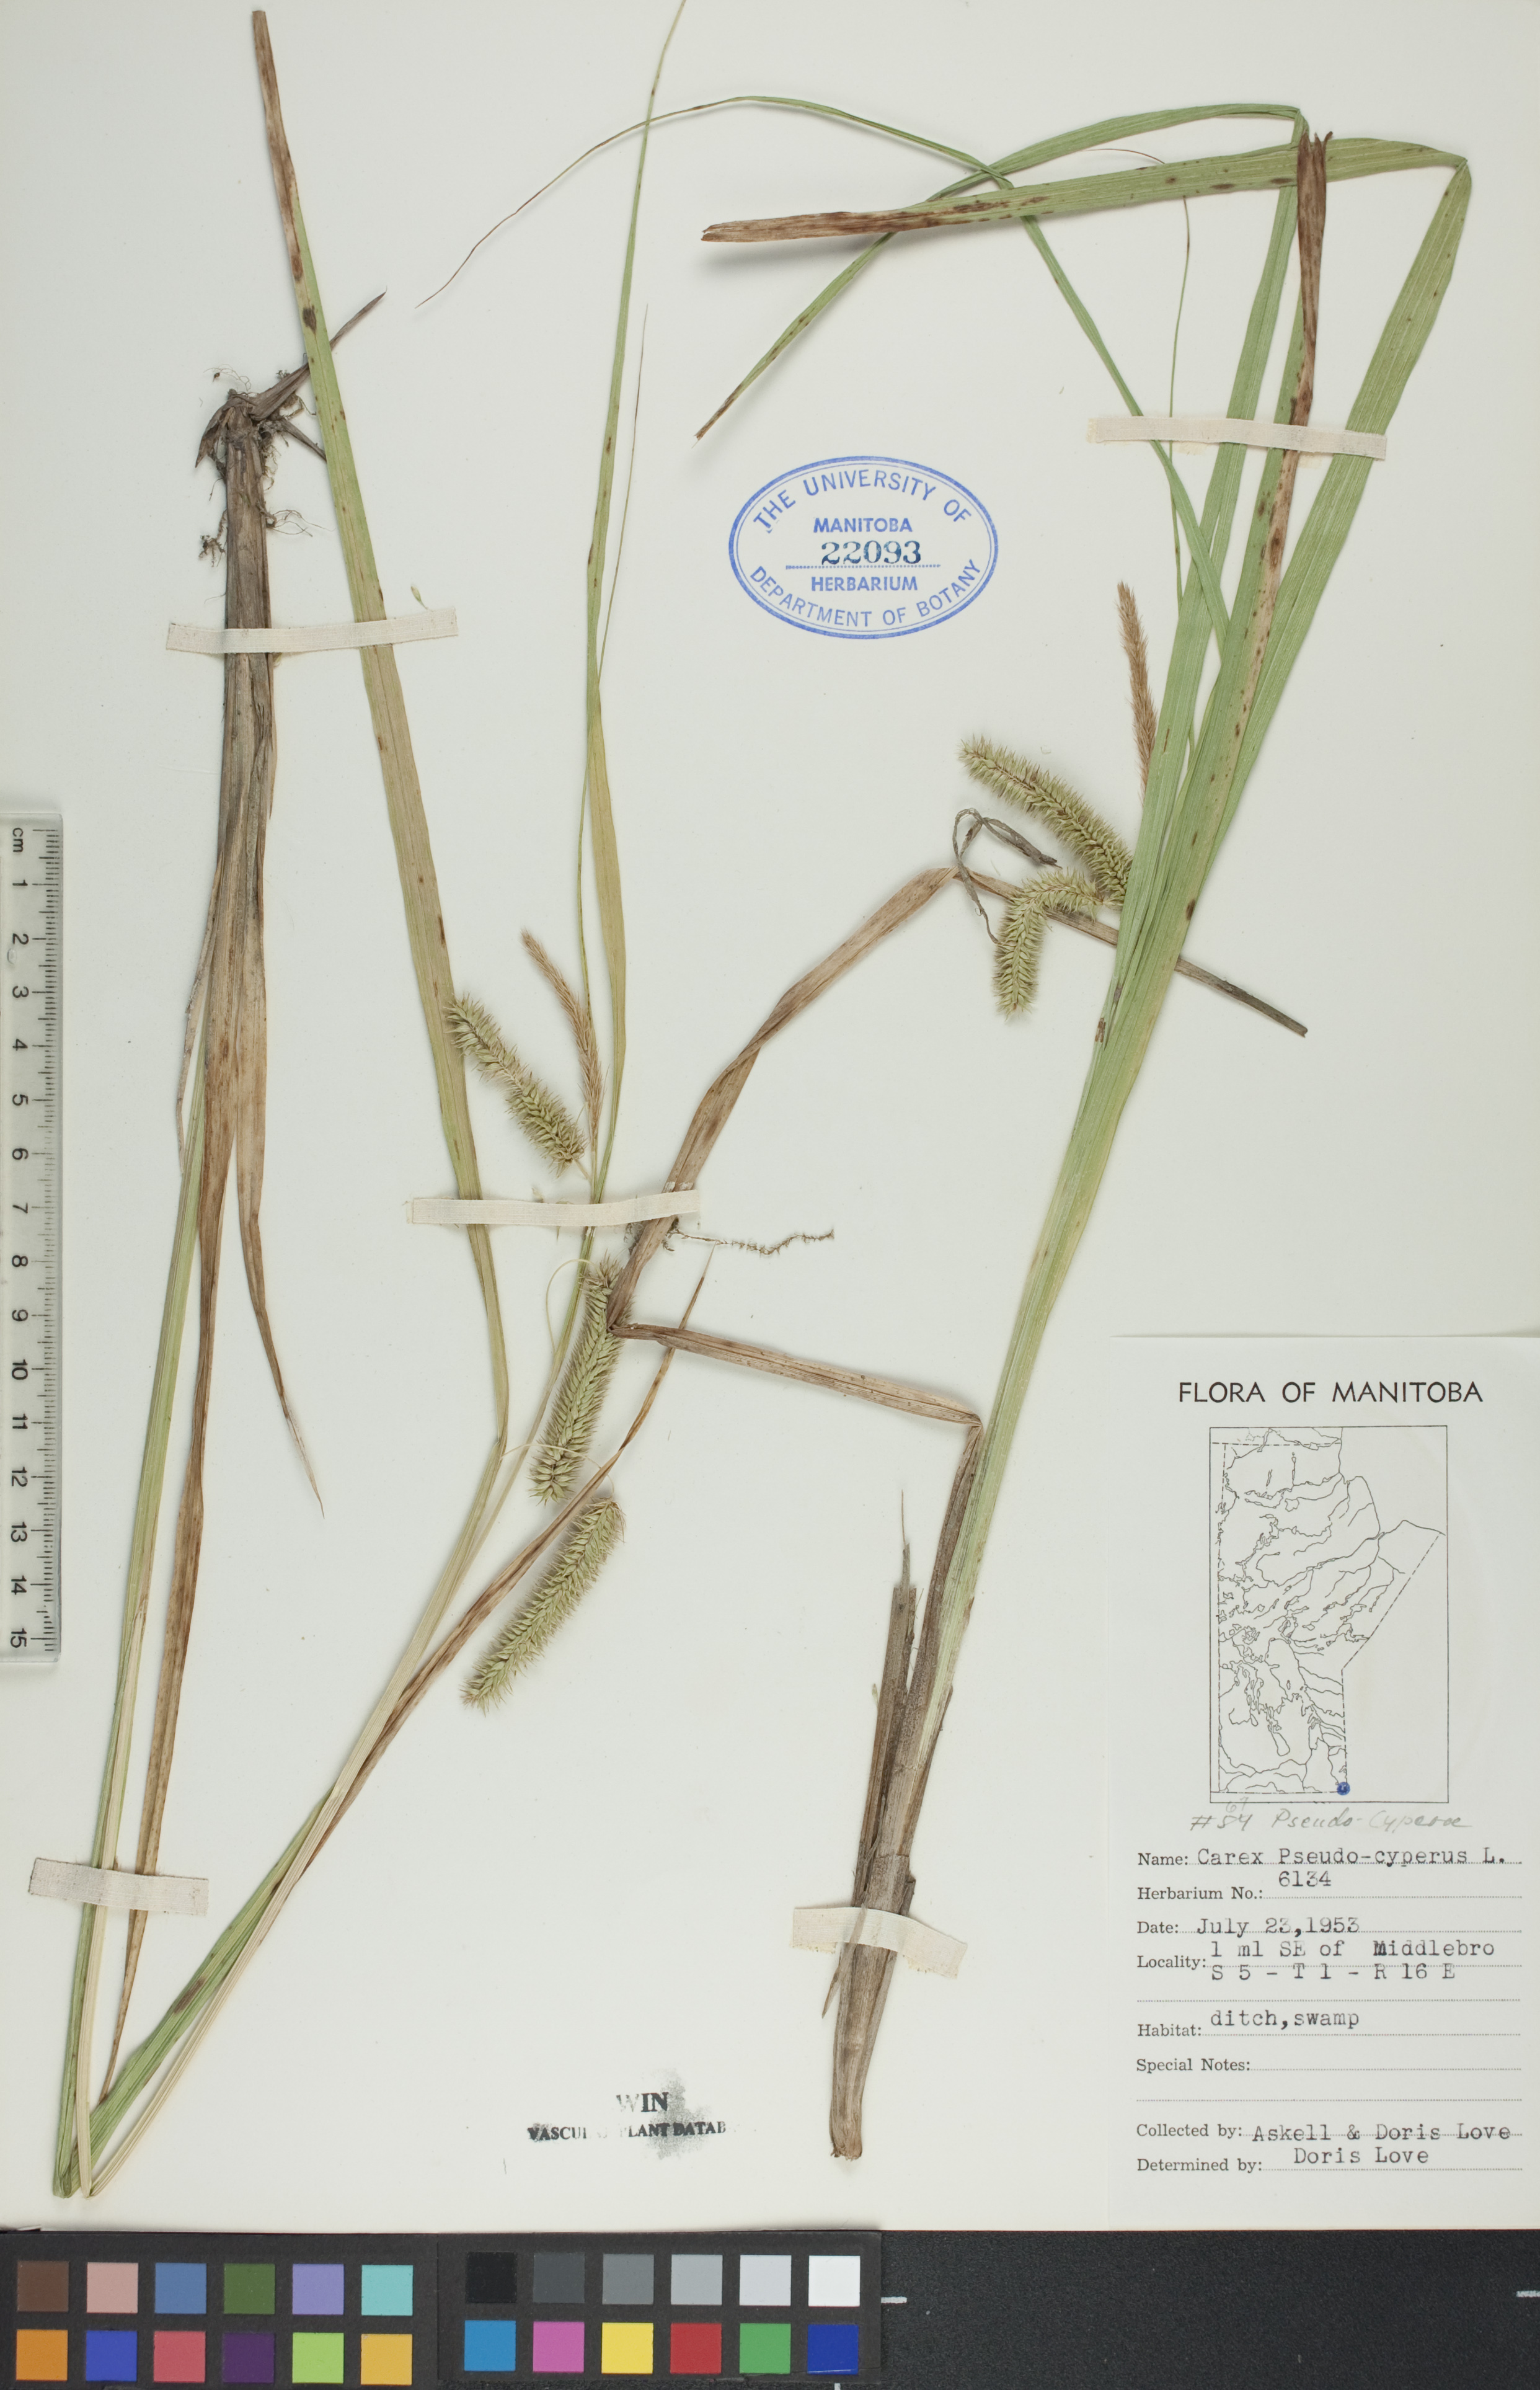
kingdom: Plantae
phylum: Tracheophyta
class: Liliopsida
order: Poales
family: Cyperaceae
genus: Carex
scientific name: Carex pseudocyperus
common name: Cyperus sedge
